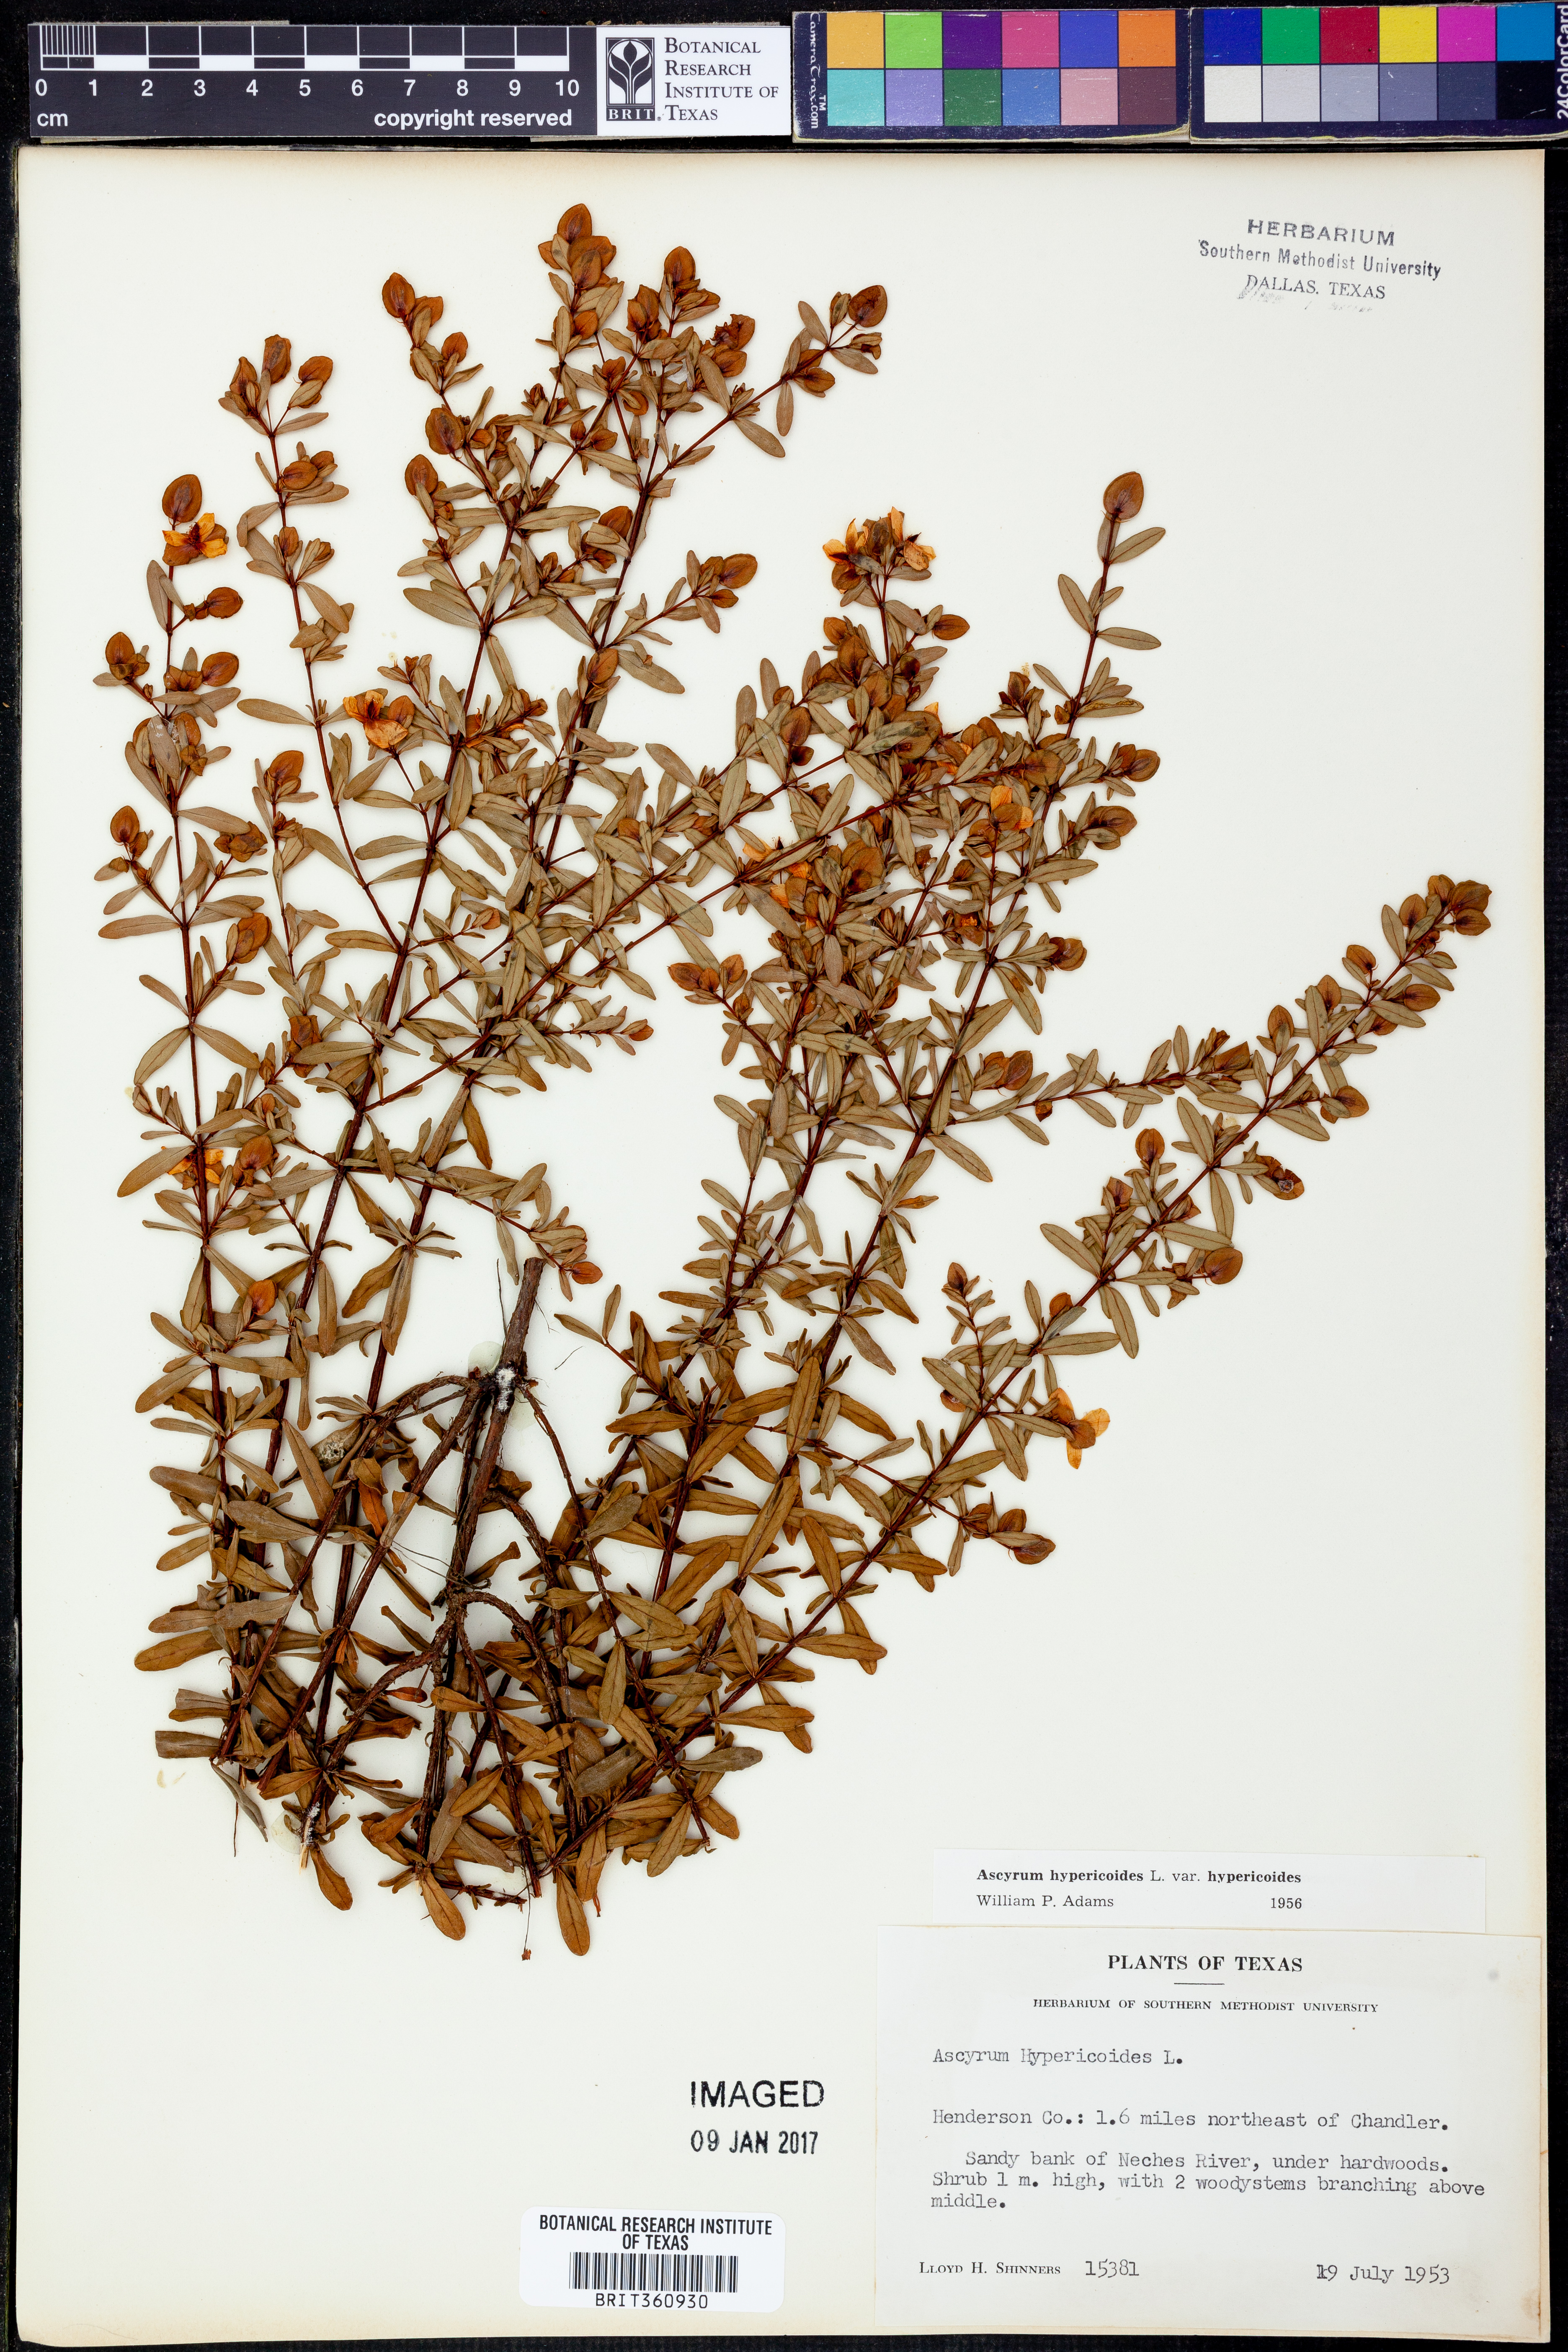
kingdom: Plantae
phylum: Tracheophyta
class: Magnoliopsida
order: Malpighiales
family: Hypericaceae
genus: Hypericum
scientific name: Hypericum hypericoides
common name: St. andrew's cross
